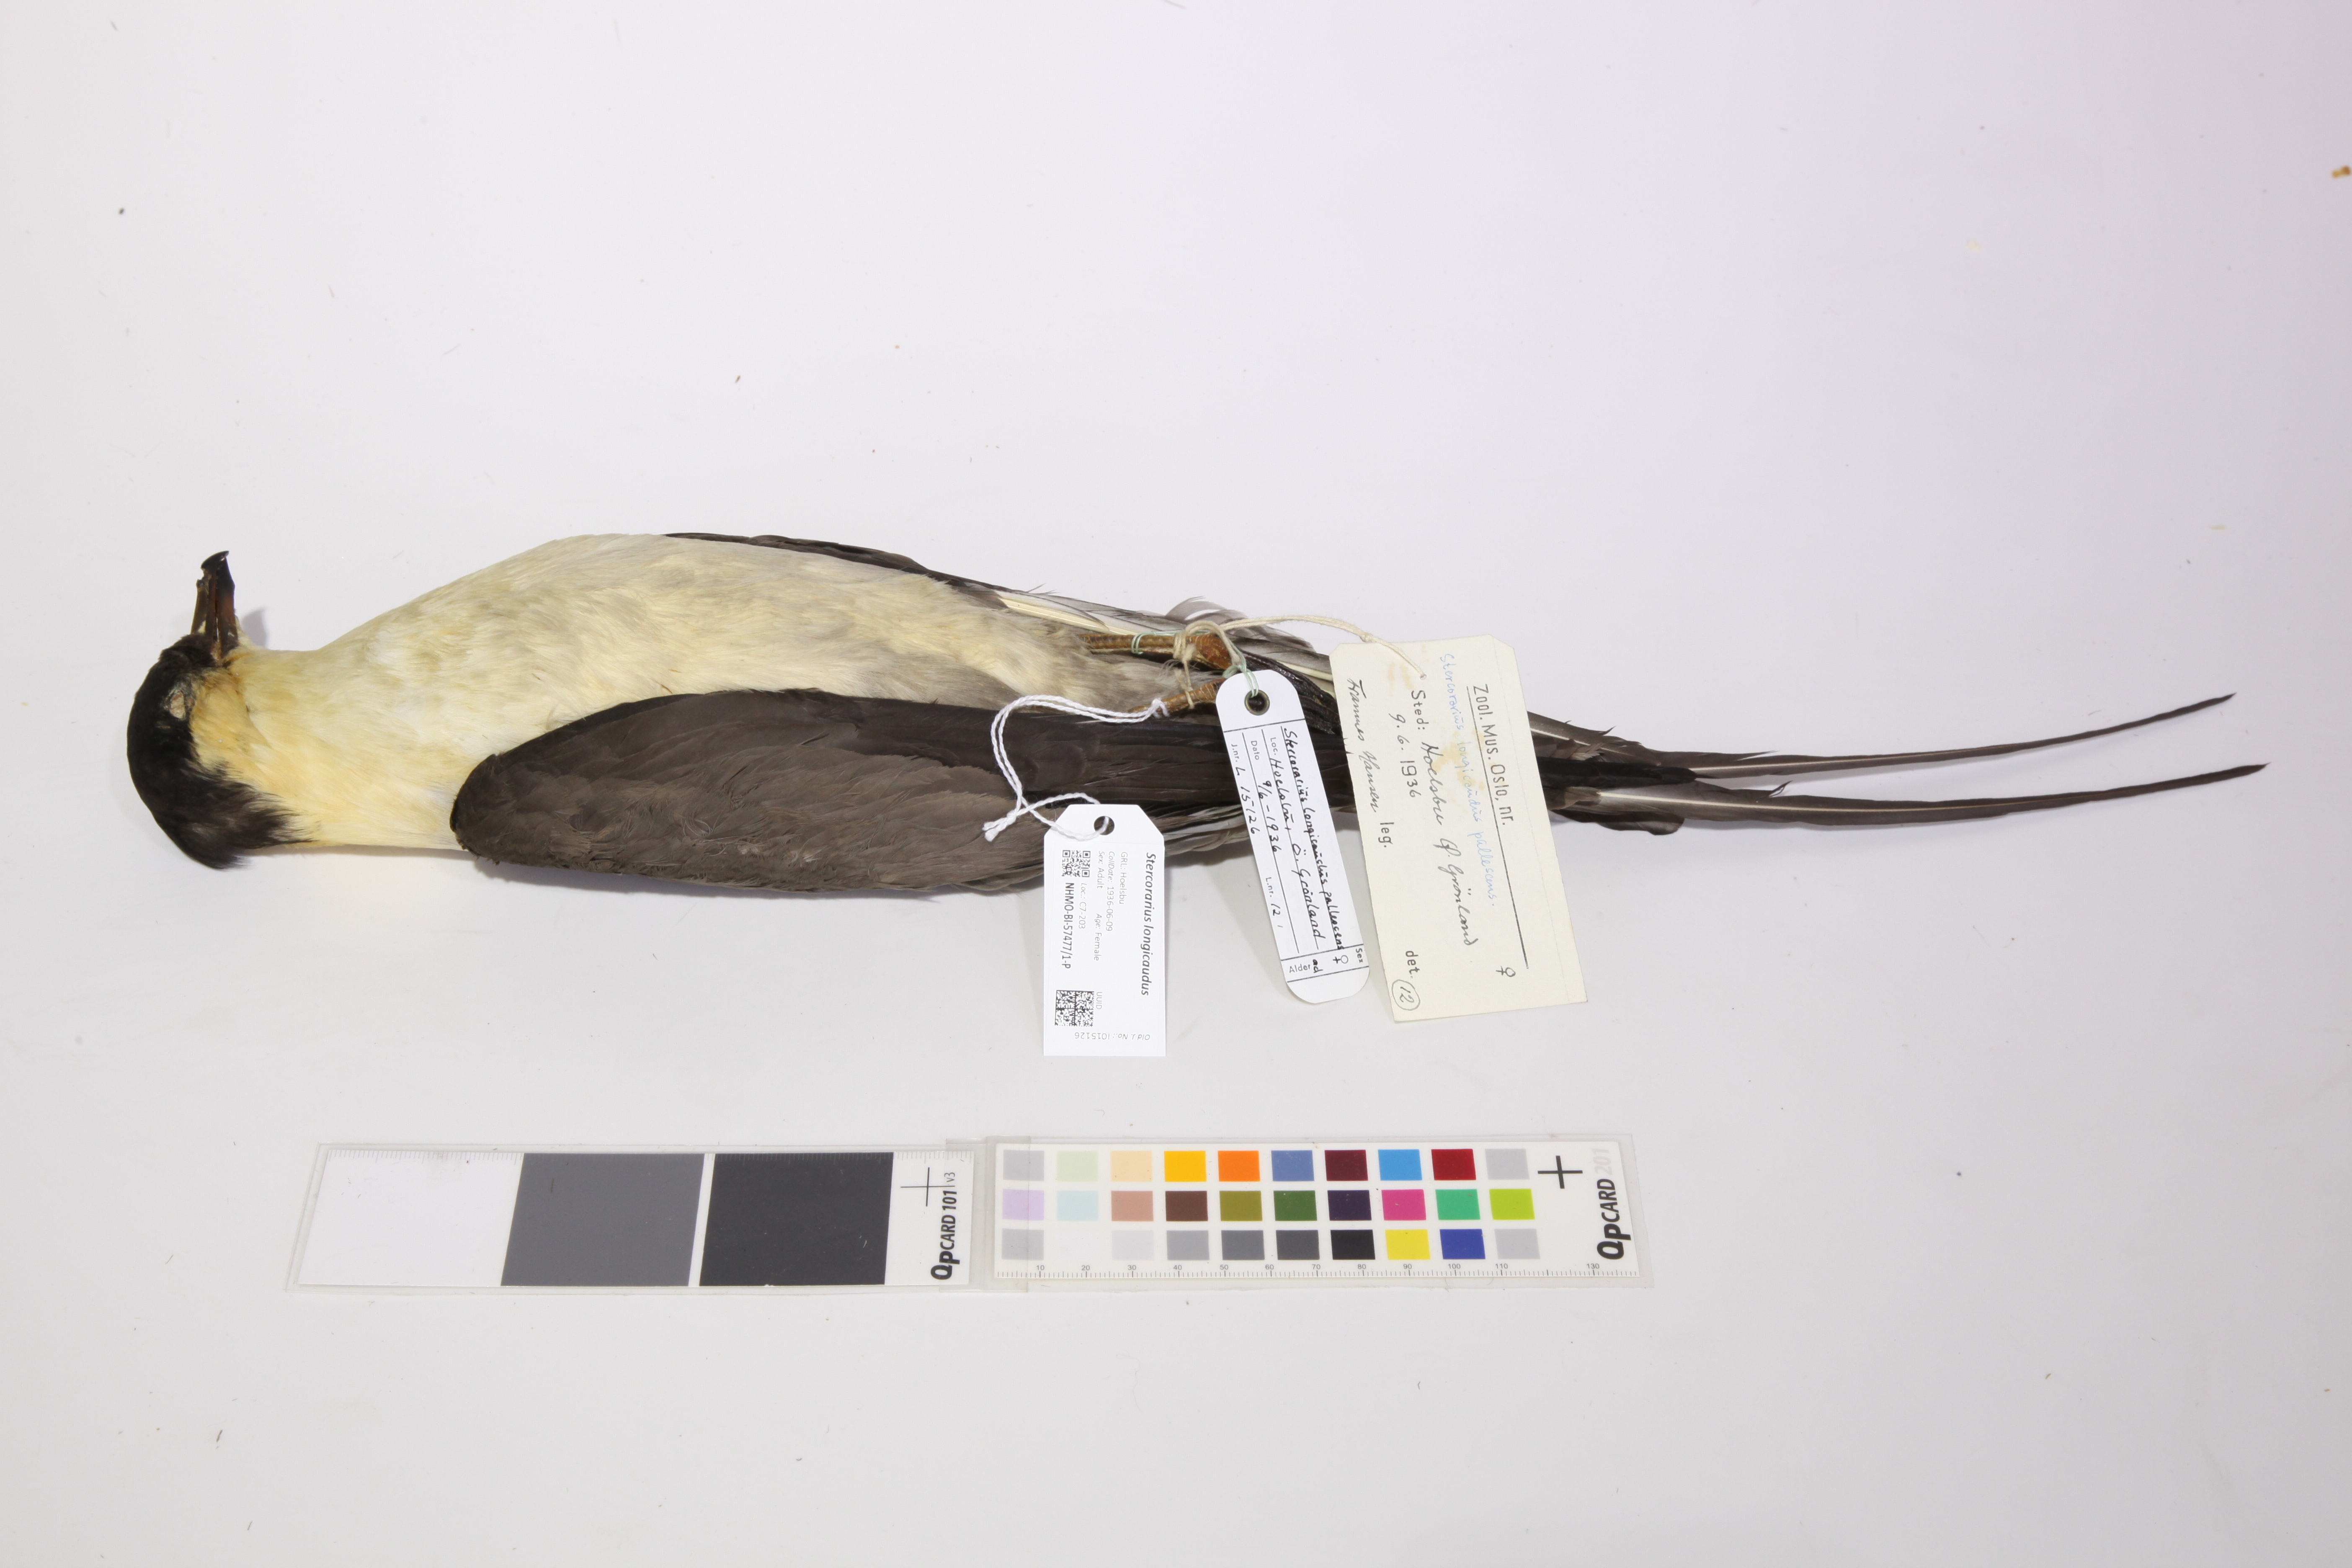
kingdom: Animalia
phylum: Chordata
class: Aves
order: Charadriiformes
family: Stercorariidae
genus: Stercorarius
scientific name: Stercorarius longicaudus
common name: Long-tailed jaeger
